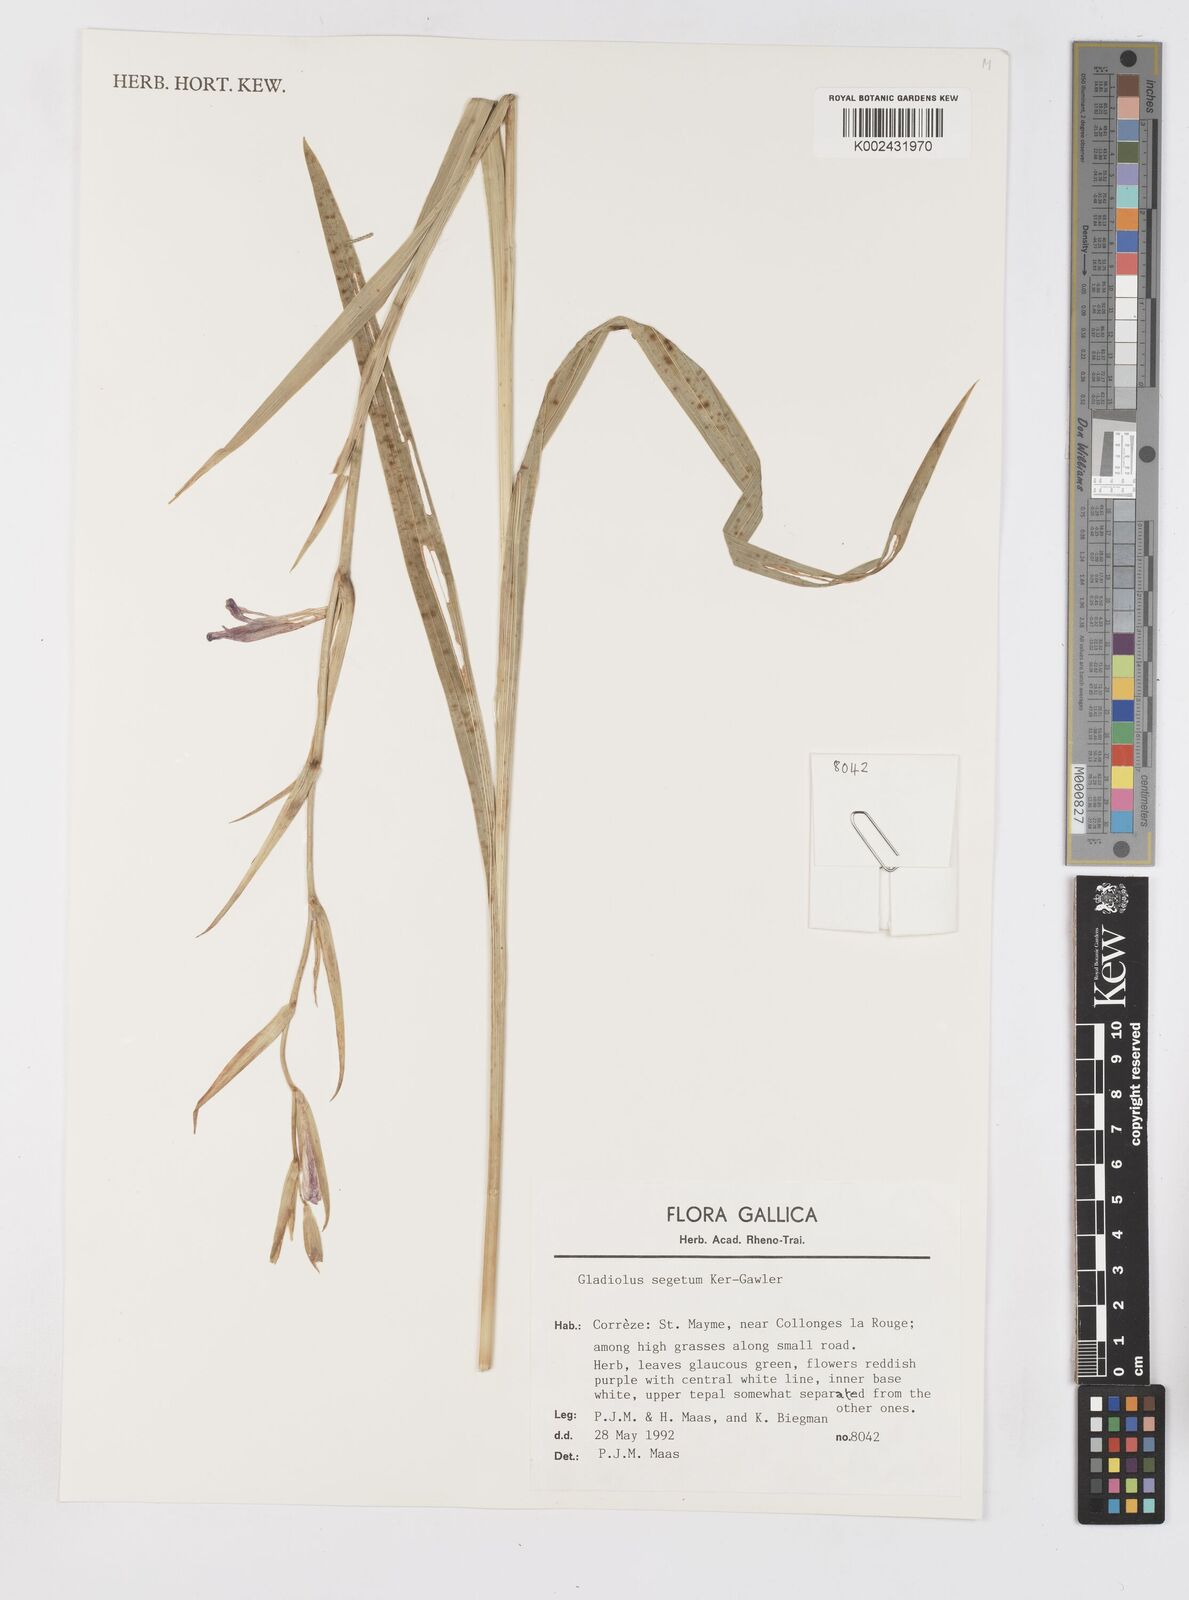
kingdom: Plantae
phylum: Tracheophyta
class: Liliopsida
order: Asparagales
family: Iridaceae
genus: Gladiolus
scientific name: Gladiolus
